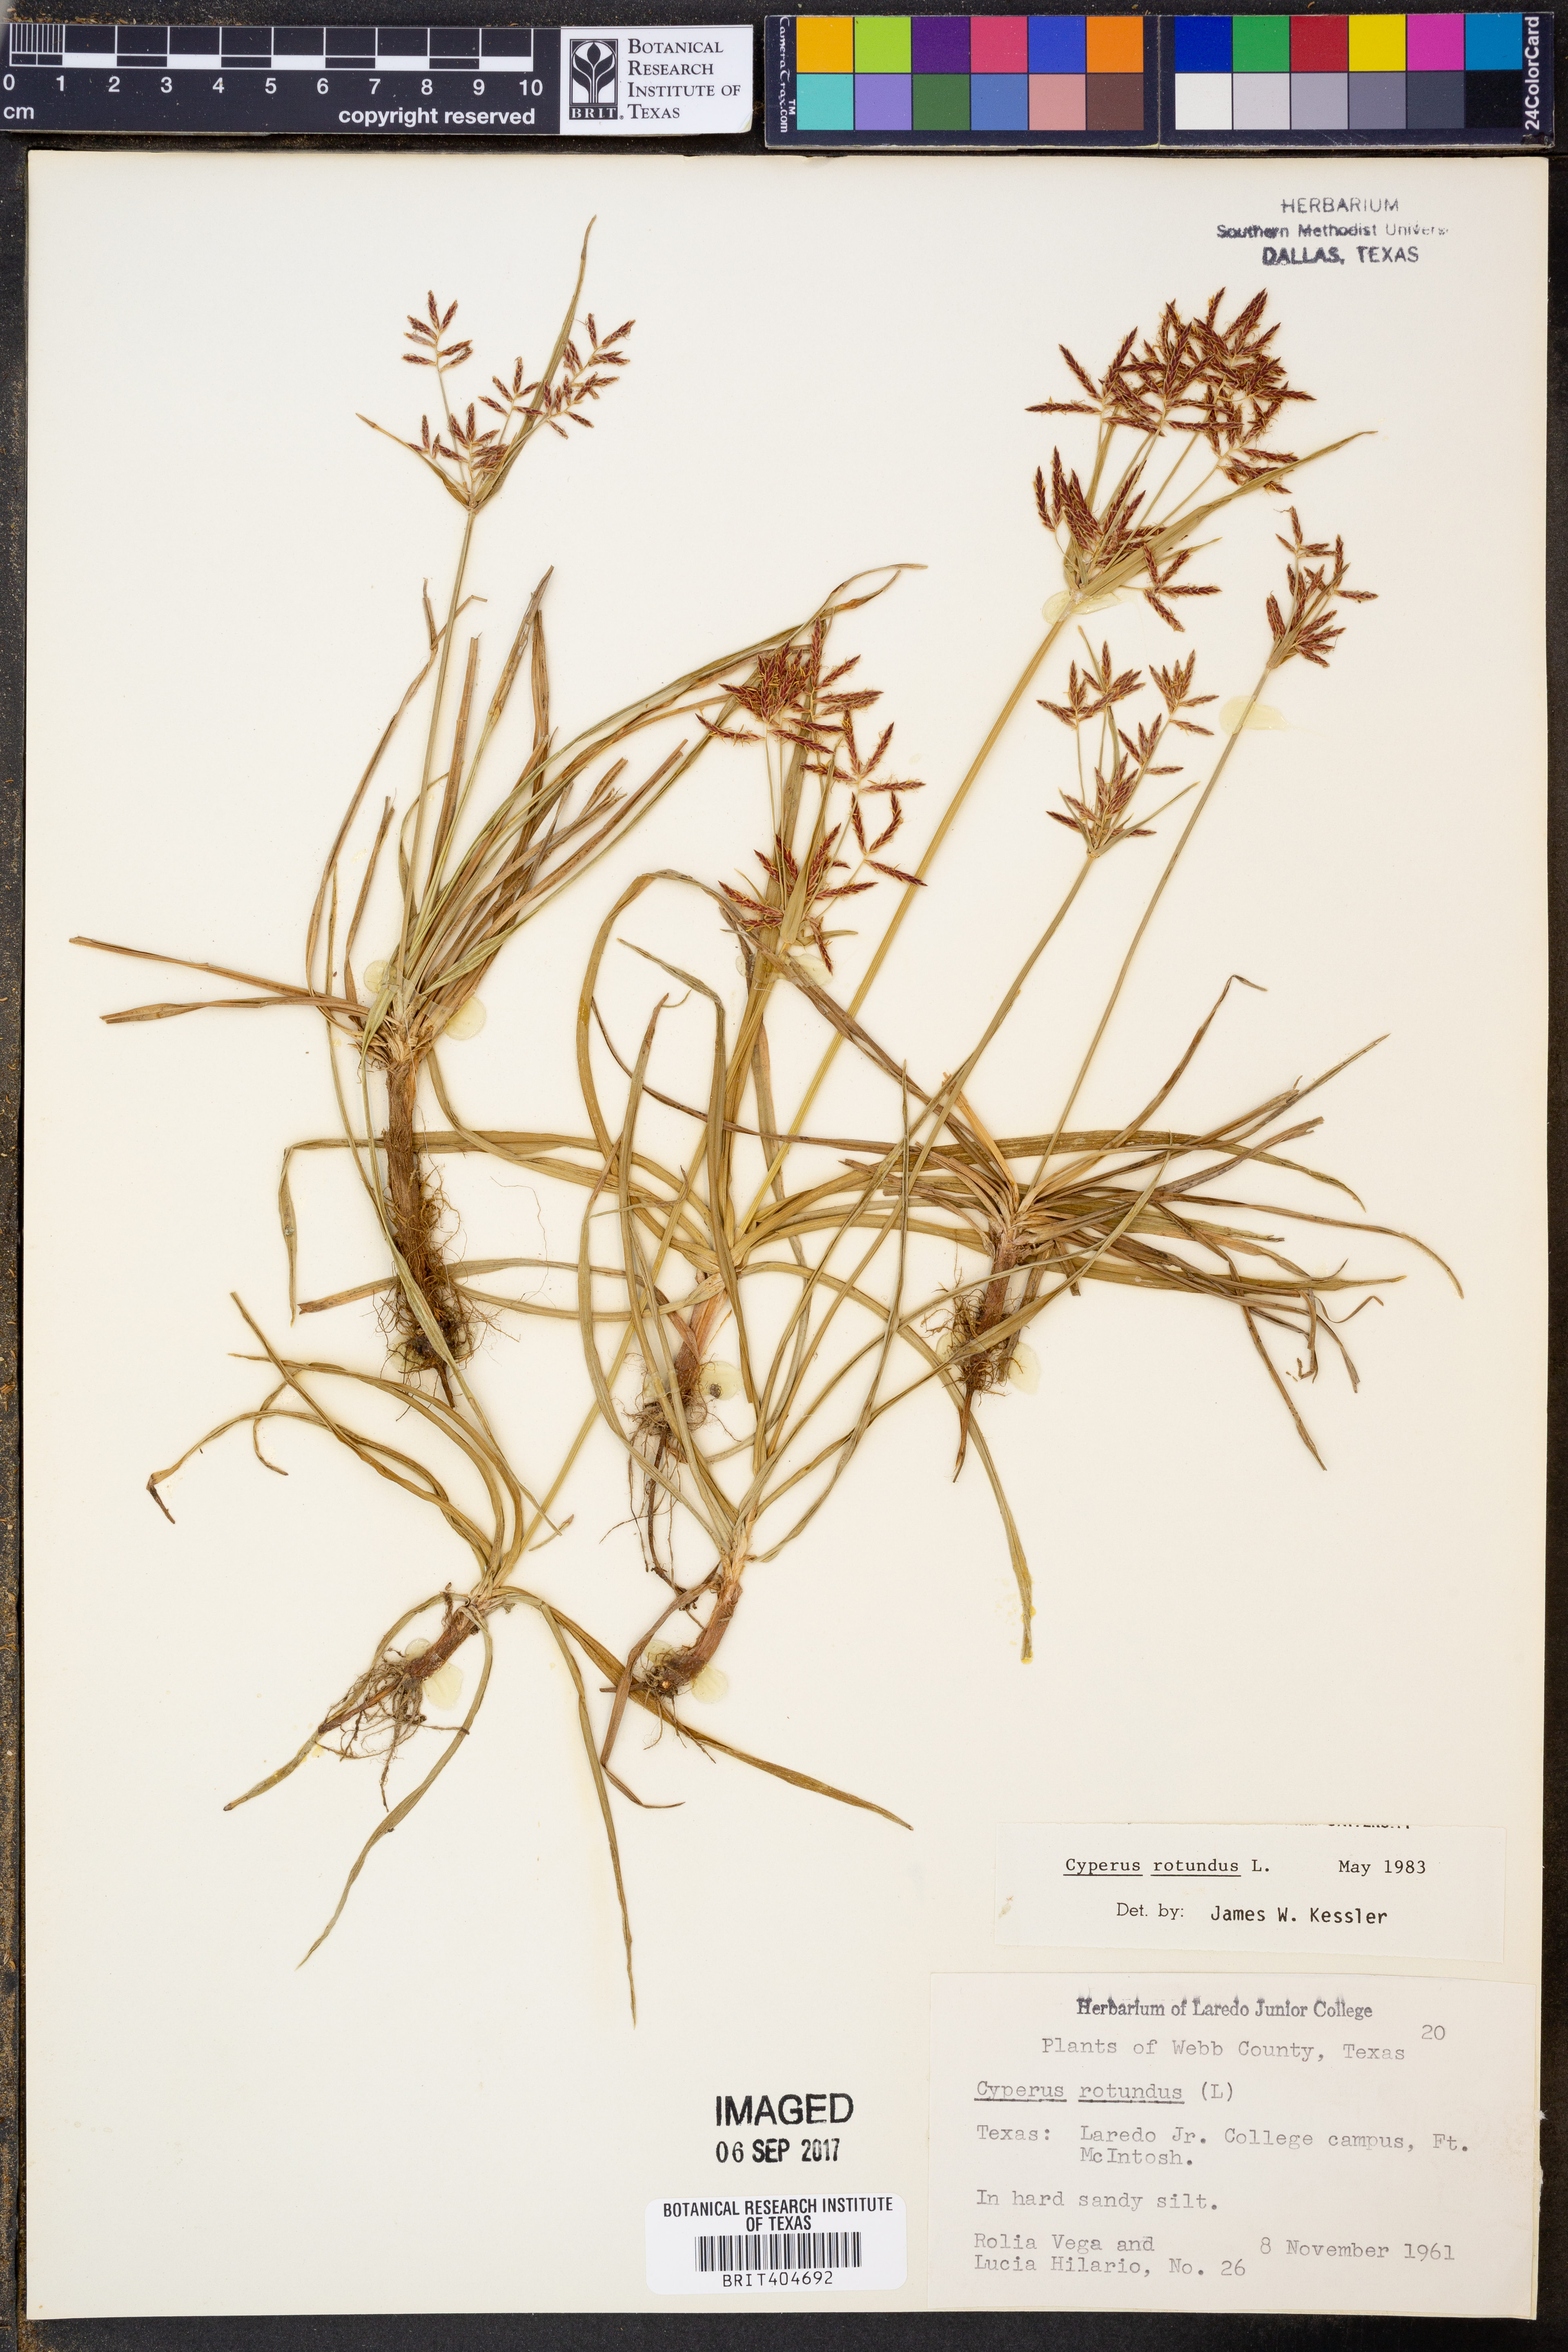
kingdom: Plantae
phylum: Tracheophyta
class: Liliopsida
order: Poales
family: Cyperaceae
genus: Cyperus
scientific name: Cyperus rotundus
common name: Nutgrass
